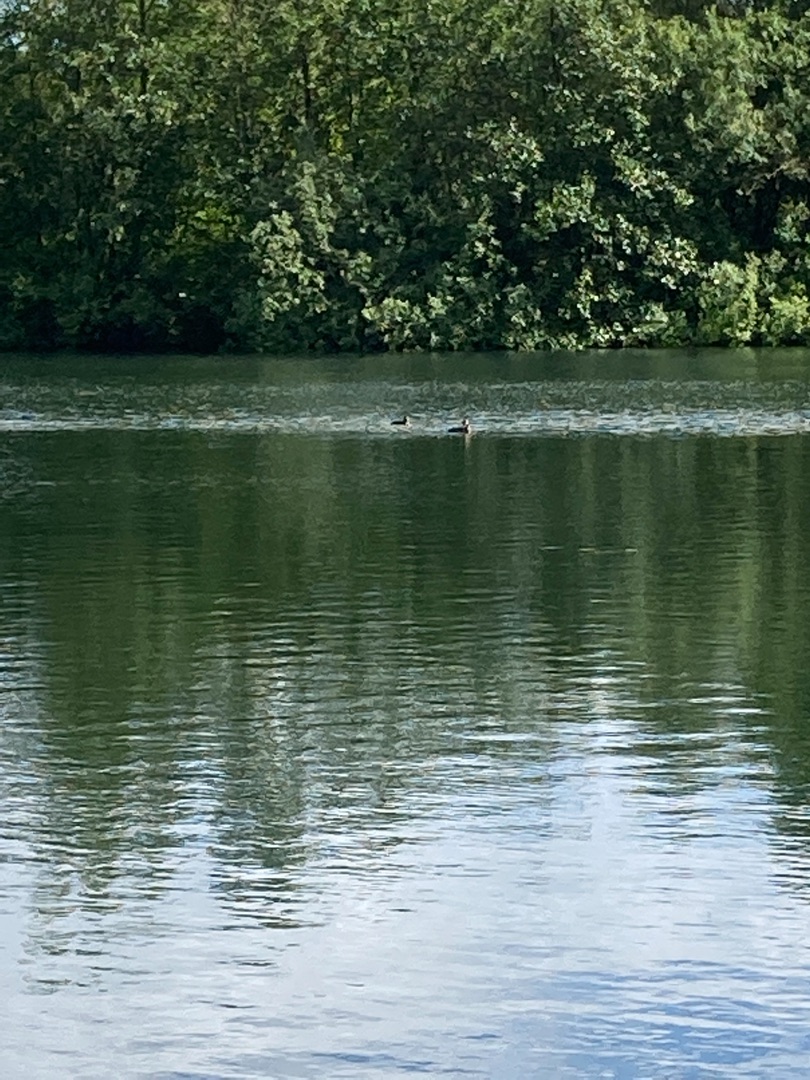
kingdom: Animalia
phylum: Chordata
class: Aves
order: Podicipediformes
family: Podicipedidae
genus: Podiceps
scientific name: Podiceps cristatus
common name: Toppet lappedykker
